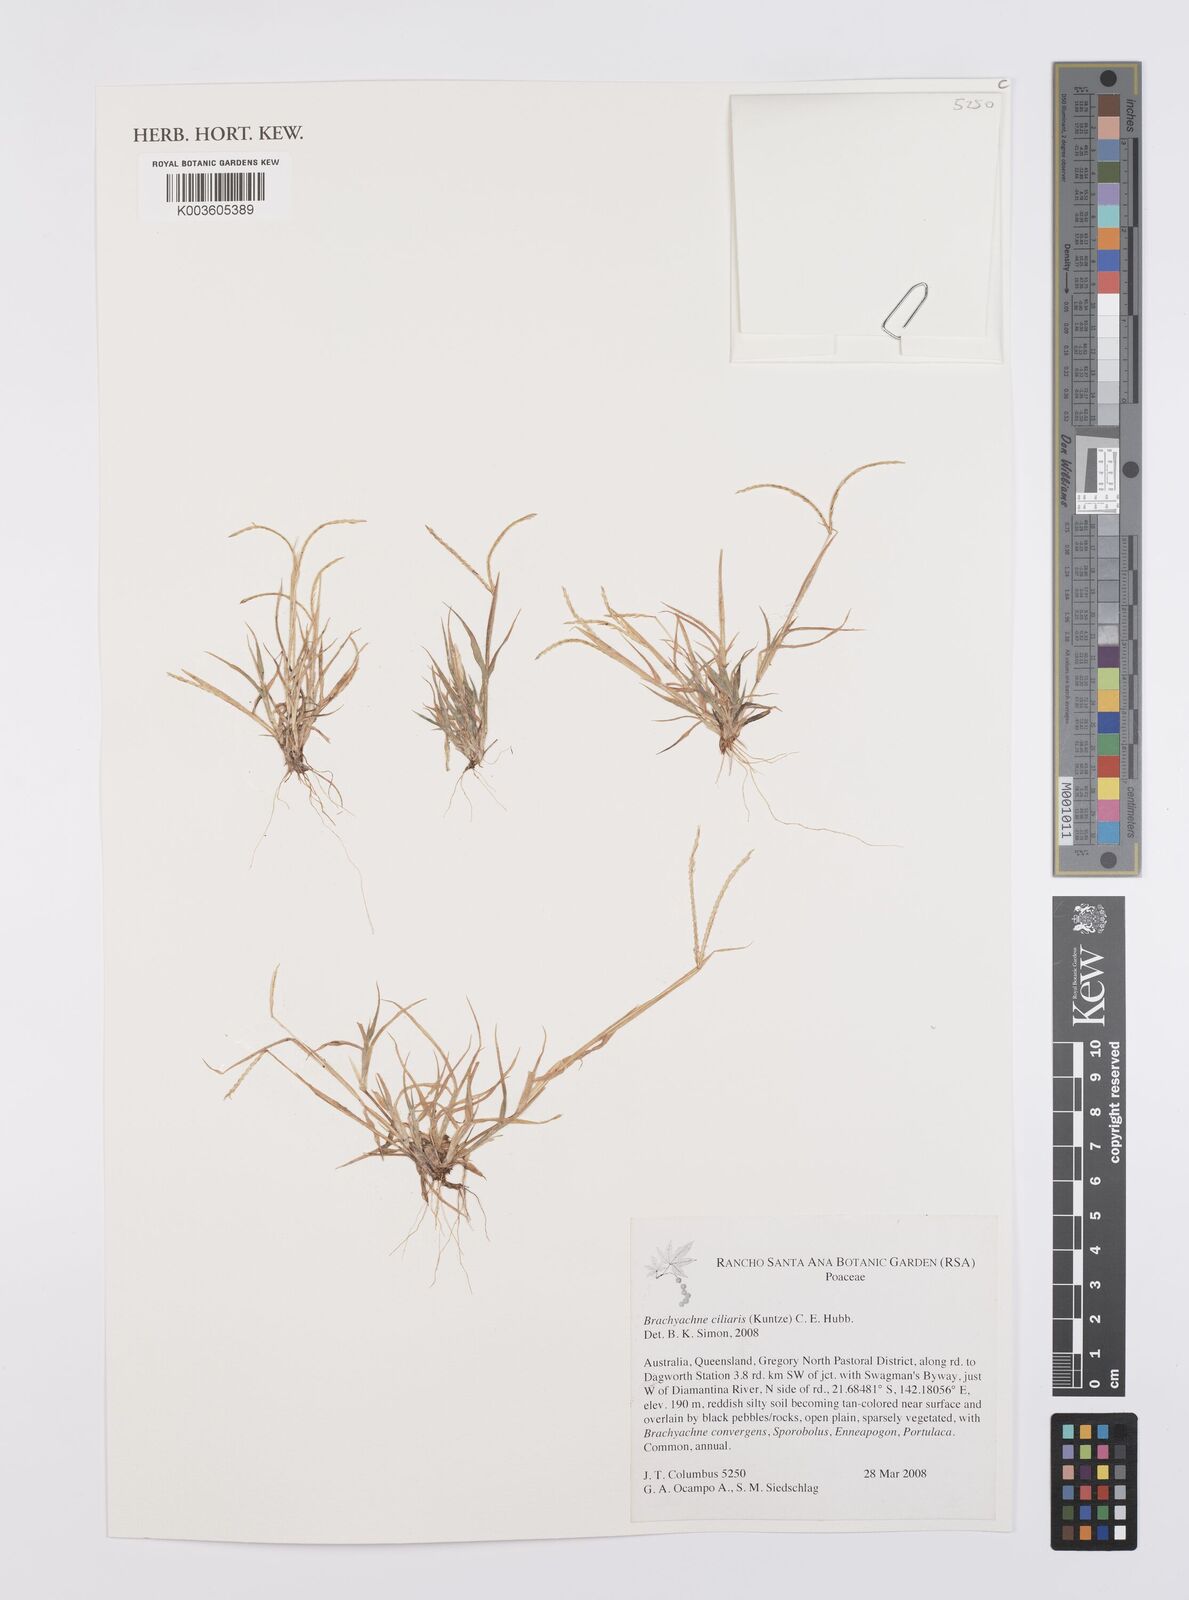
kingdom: Plantae
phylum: Tracheophyta
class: Liliopsida
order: Poales
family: Poaceae
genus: Cynodon
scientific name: Cynodon simonii
